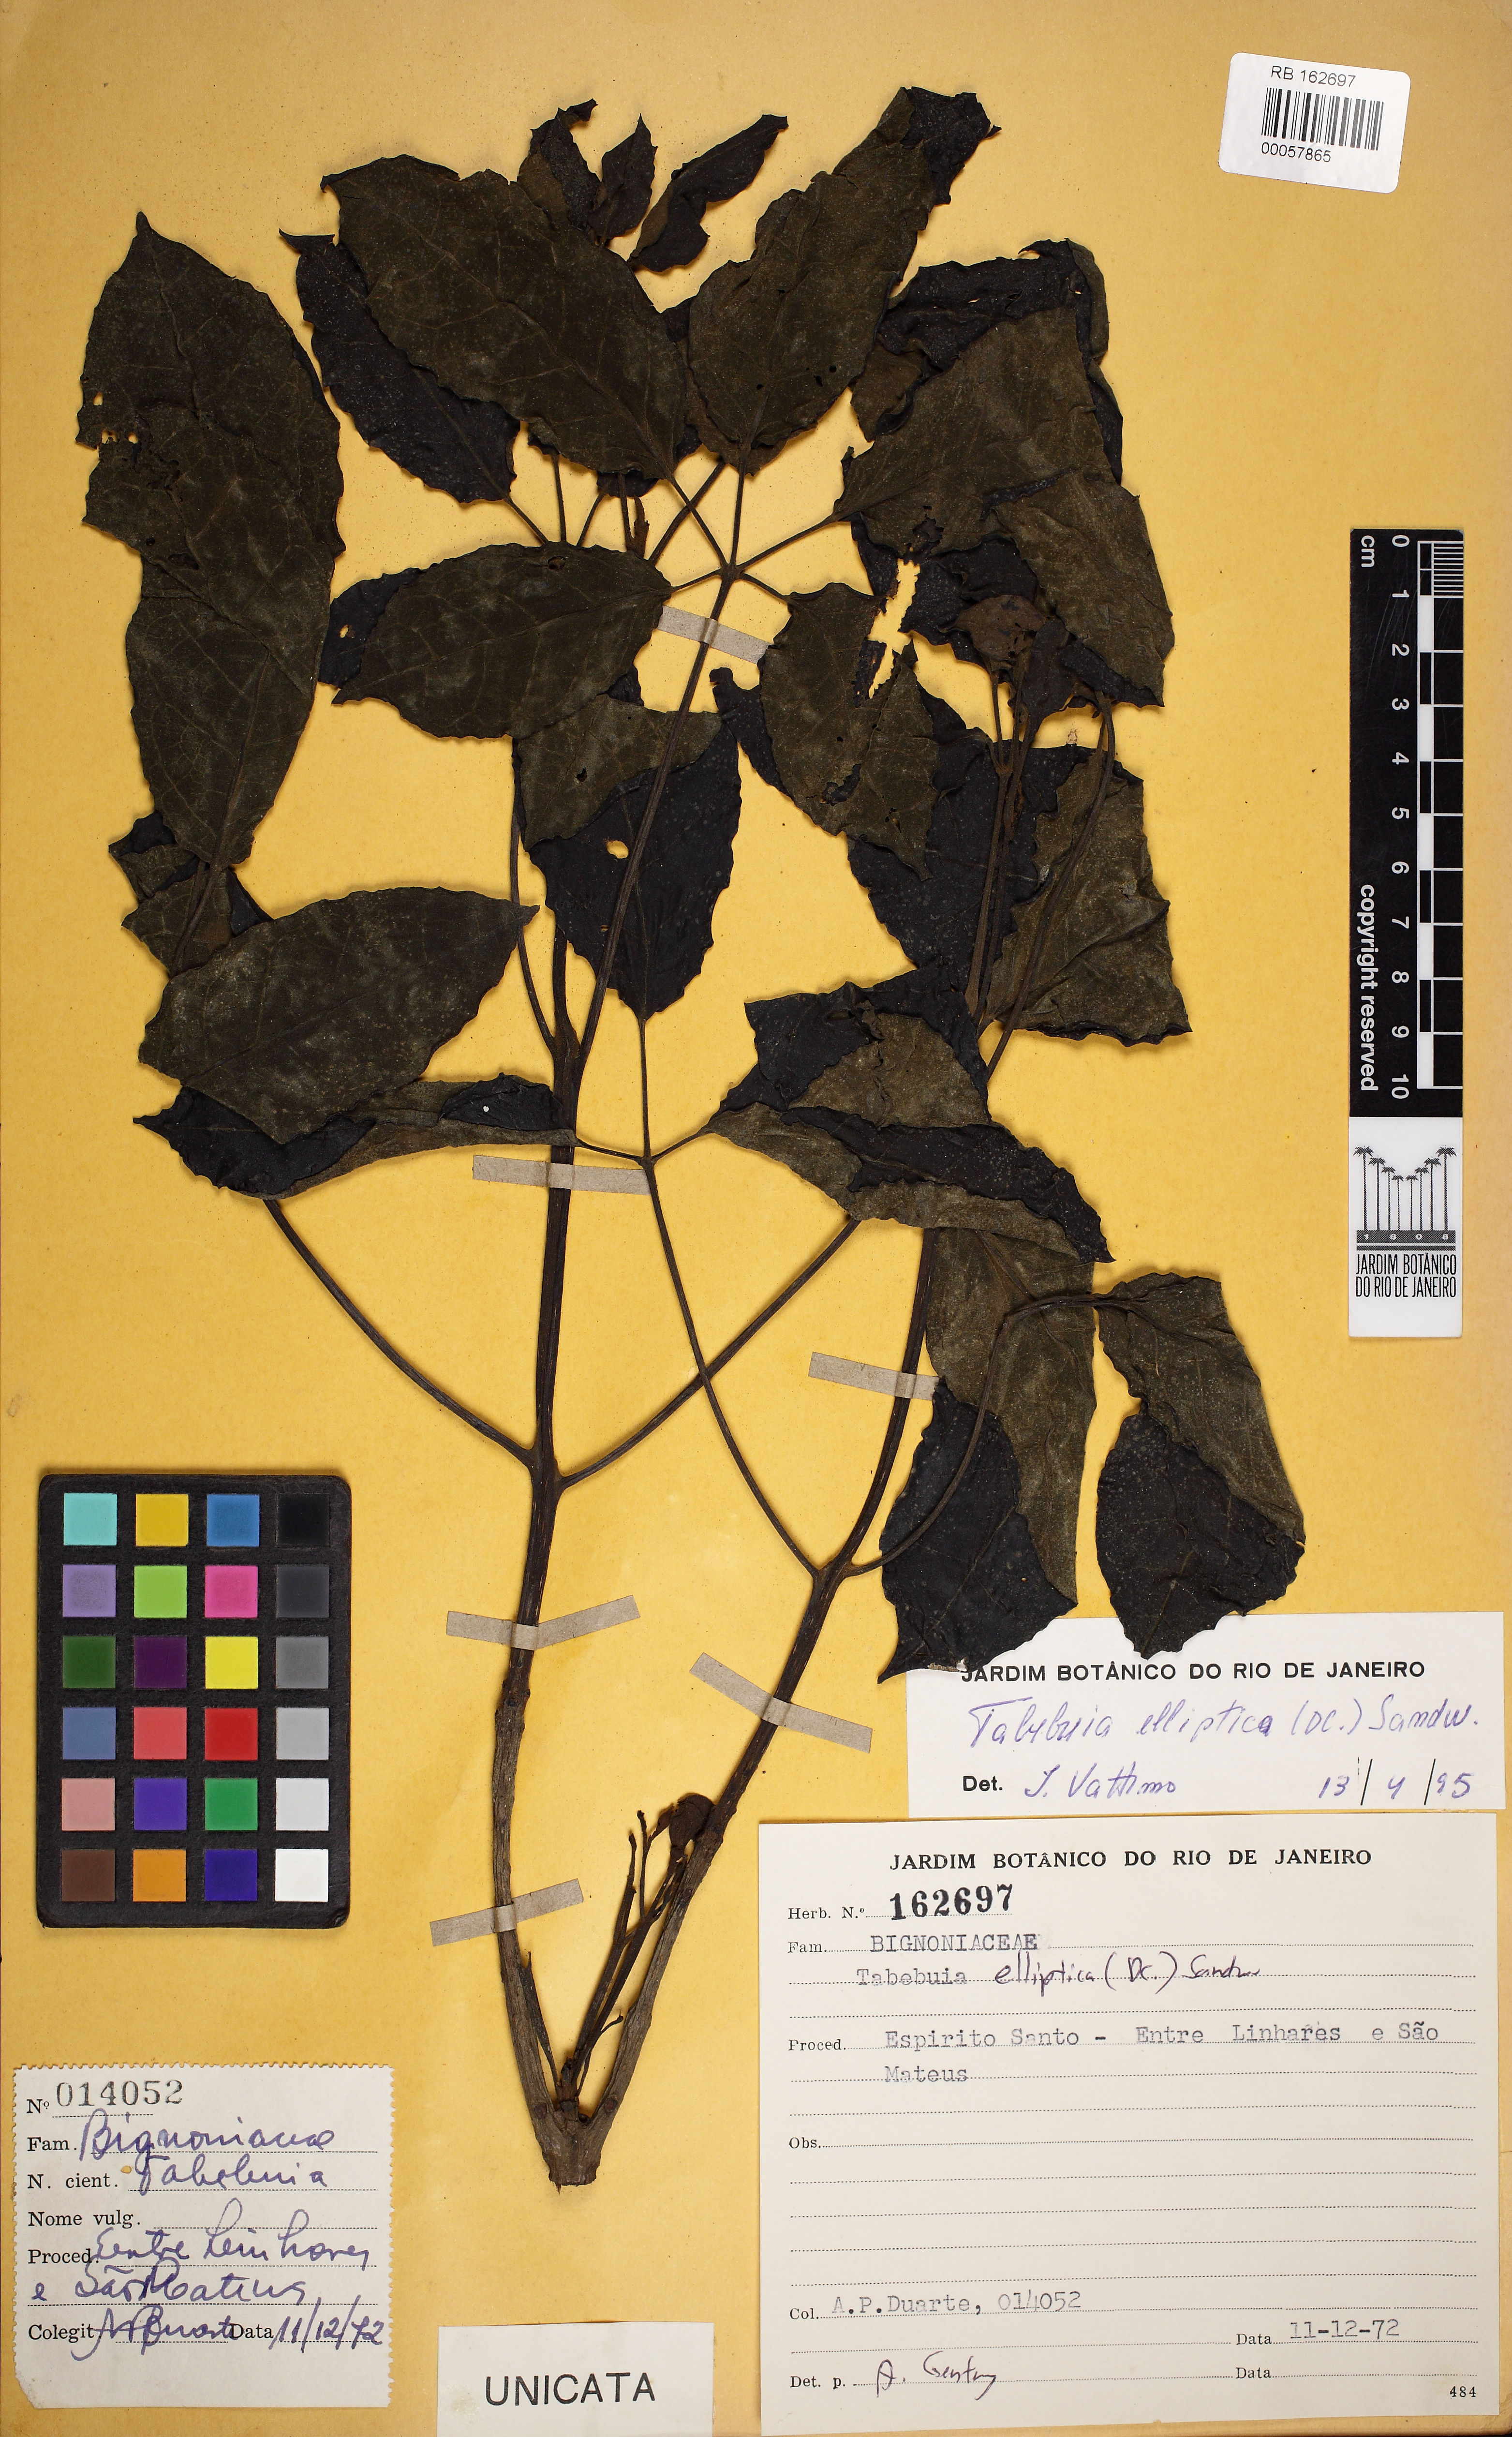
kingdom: Plantae
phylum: Tracheophyta
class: Magnoliopsida
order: Lamiales
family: Bignoniaceae
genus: Tabebuia
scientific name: Tabebuia elliptica
